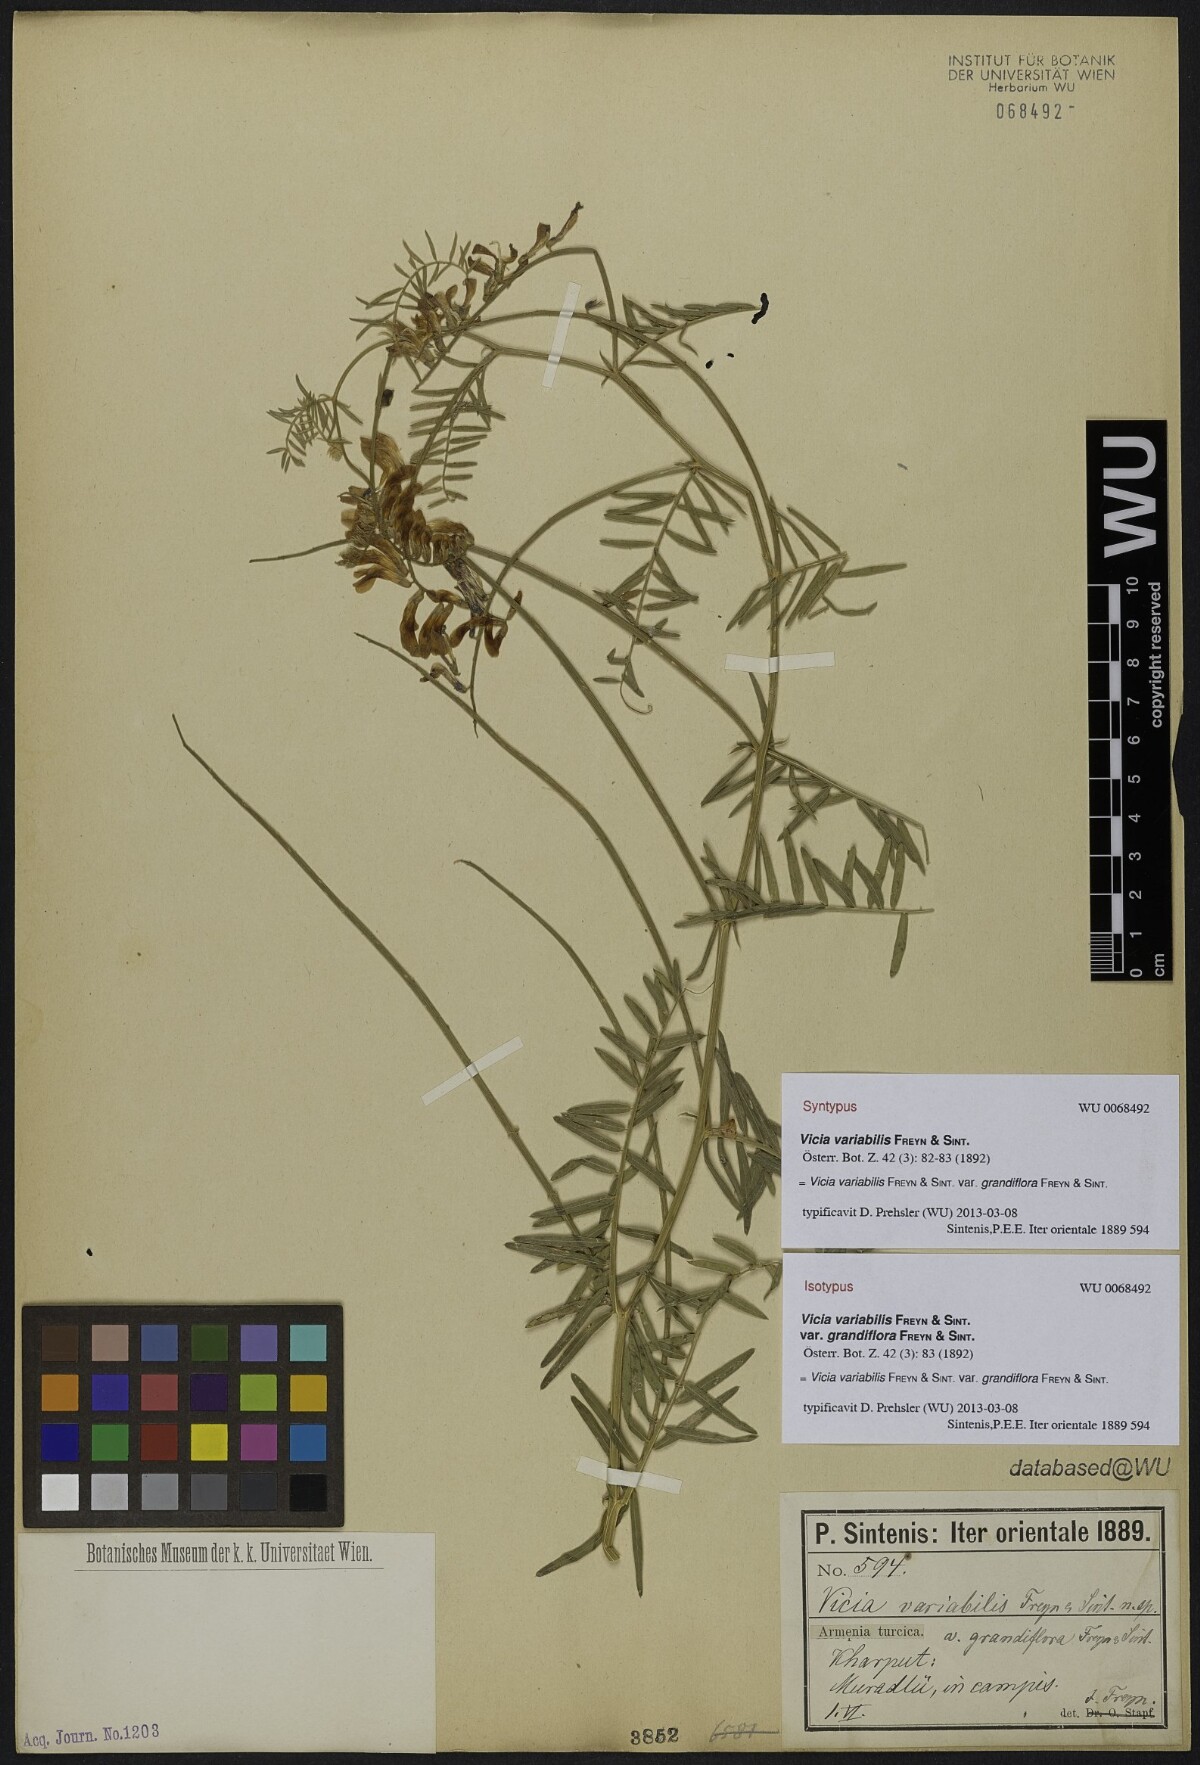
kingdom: Plantae
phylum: Tracheophyta
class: Magnoliopsida
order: Fabales
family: Fabaceae
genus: Vicia
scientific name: Vicia
